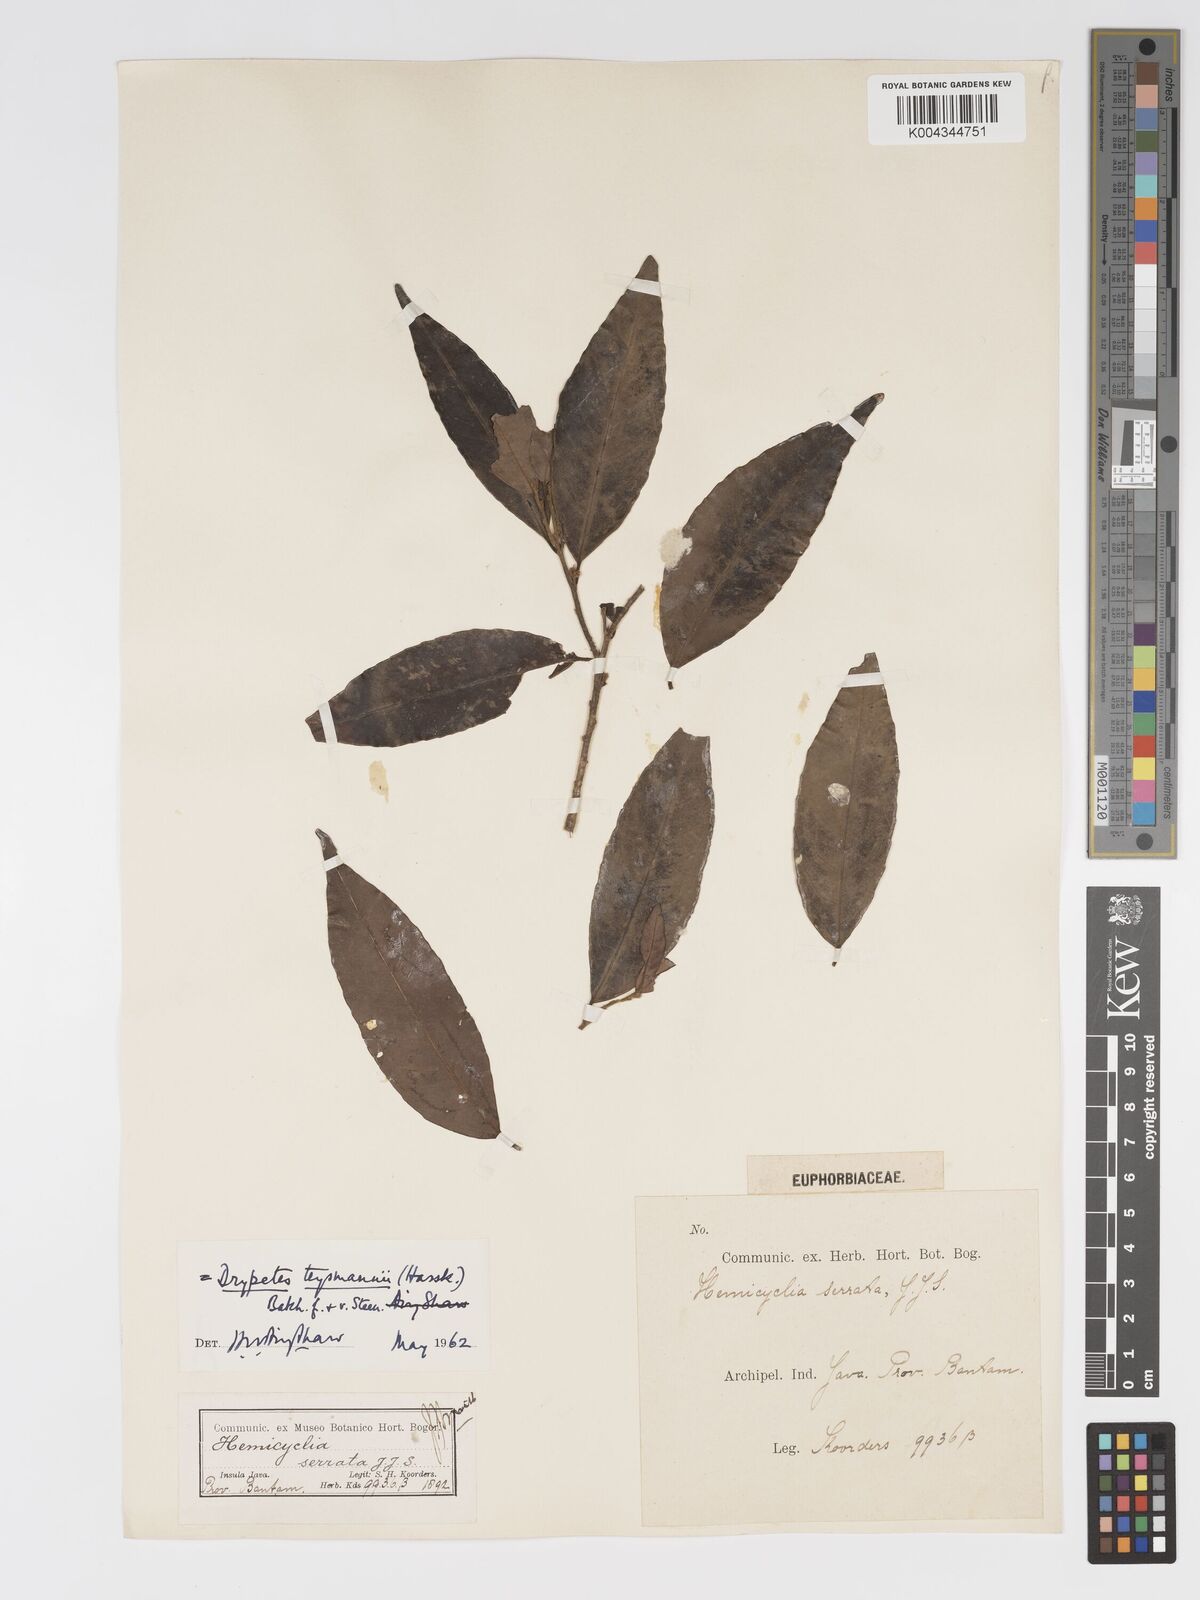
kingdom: Plantae
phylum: Tracheophyta
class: Magnoliopsida
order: Malpighiales
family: Putranjivaceae
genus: Drypetes
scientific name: Drypetes teysmannii
